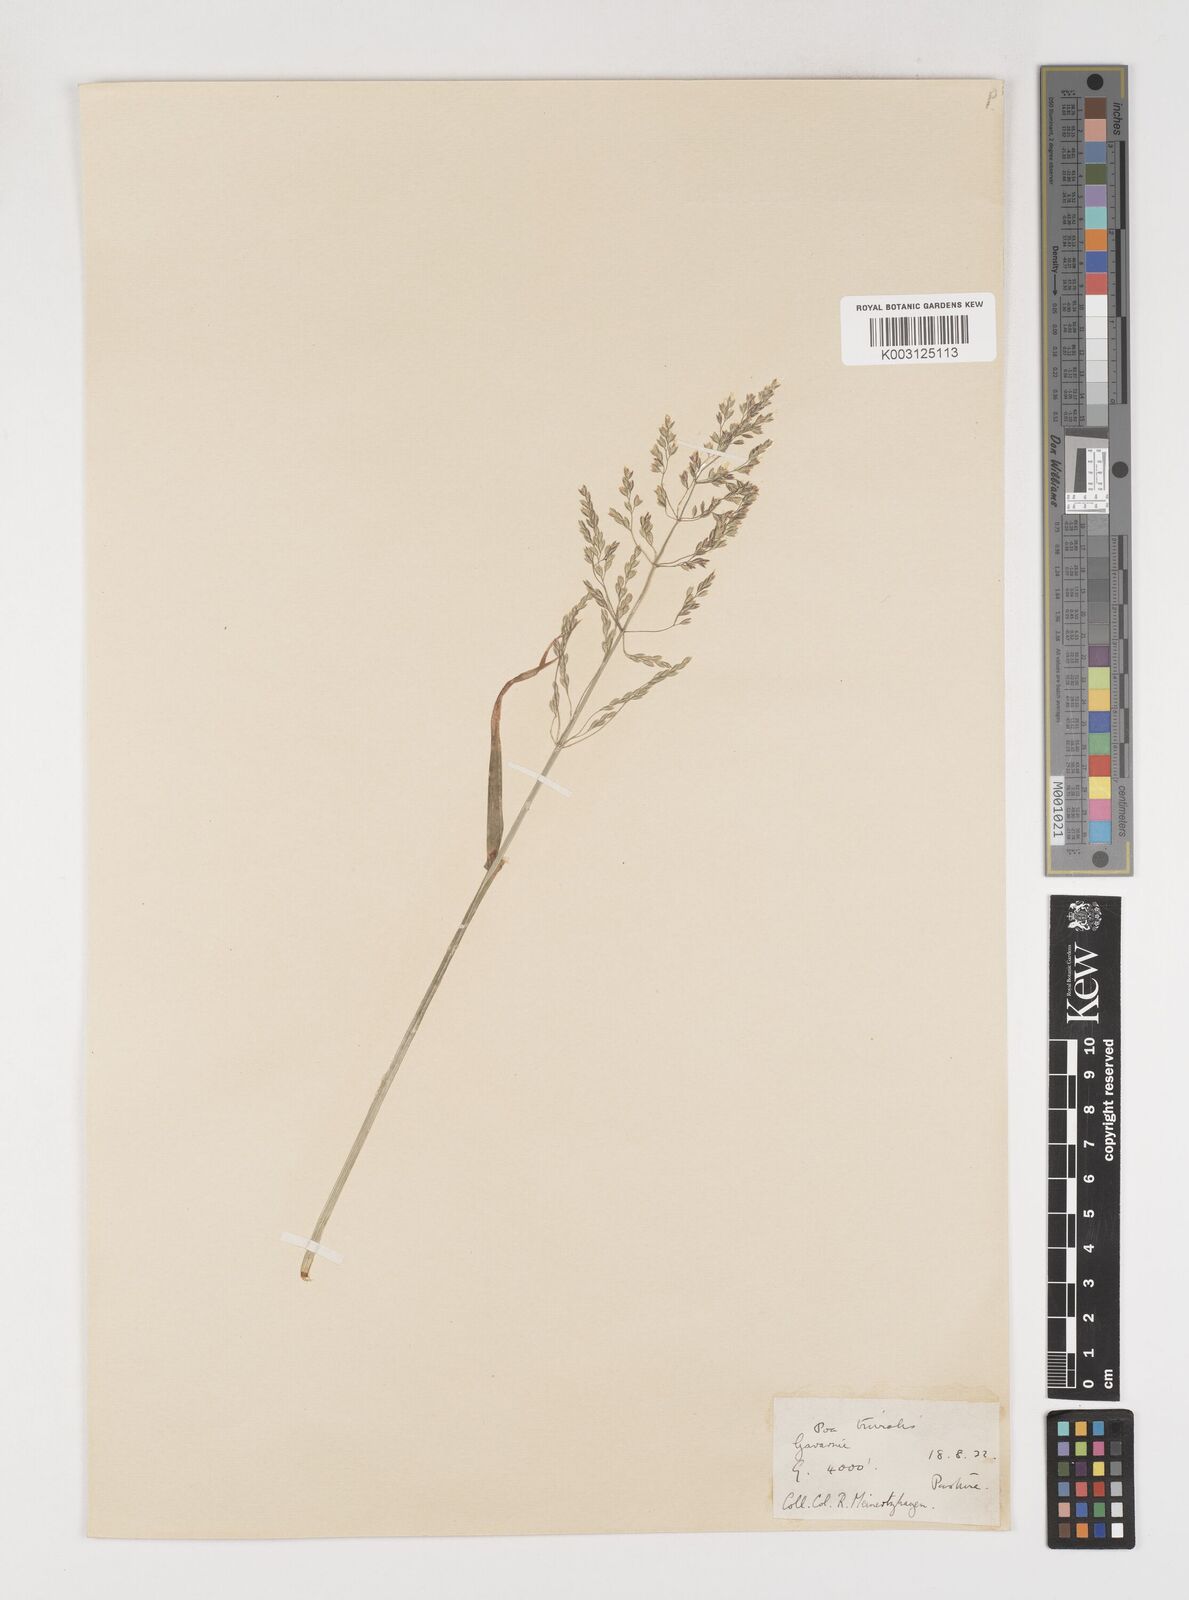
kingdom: Plantae
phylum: Tracheophyta
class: Liliopsida
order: Poales
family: Poaceae
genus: Poa
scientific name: Poa trivialis
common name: Rough bluegrass
